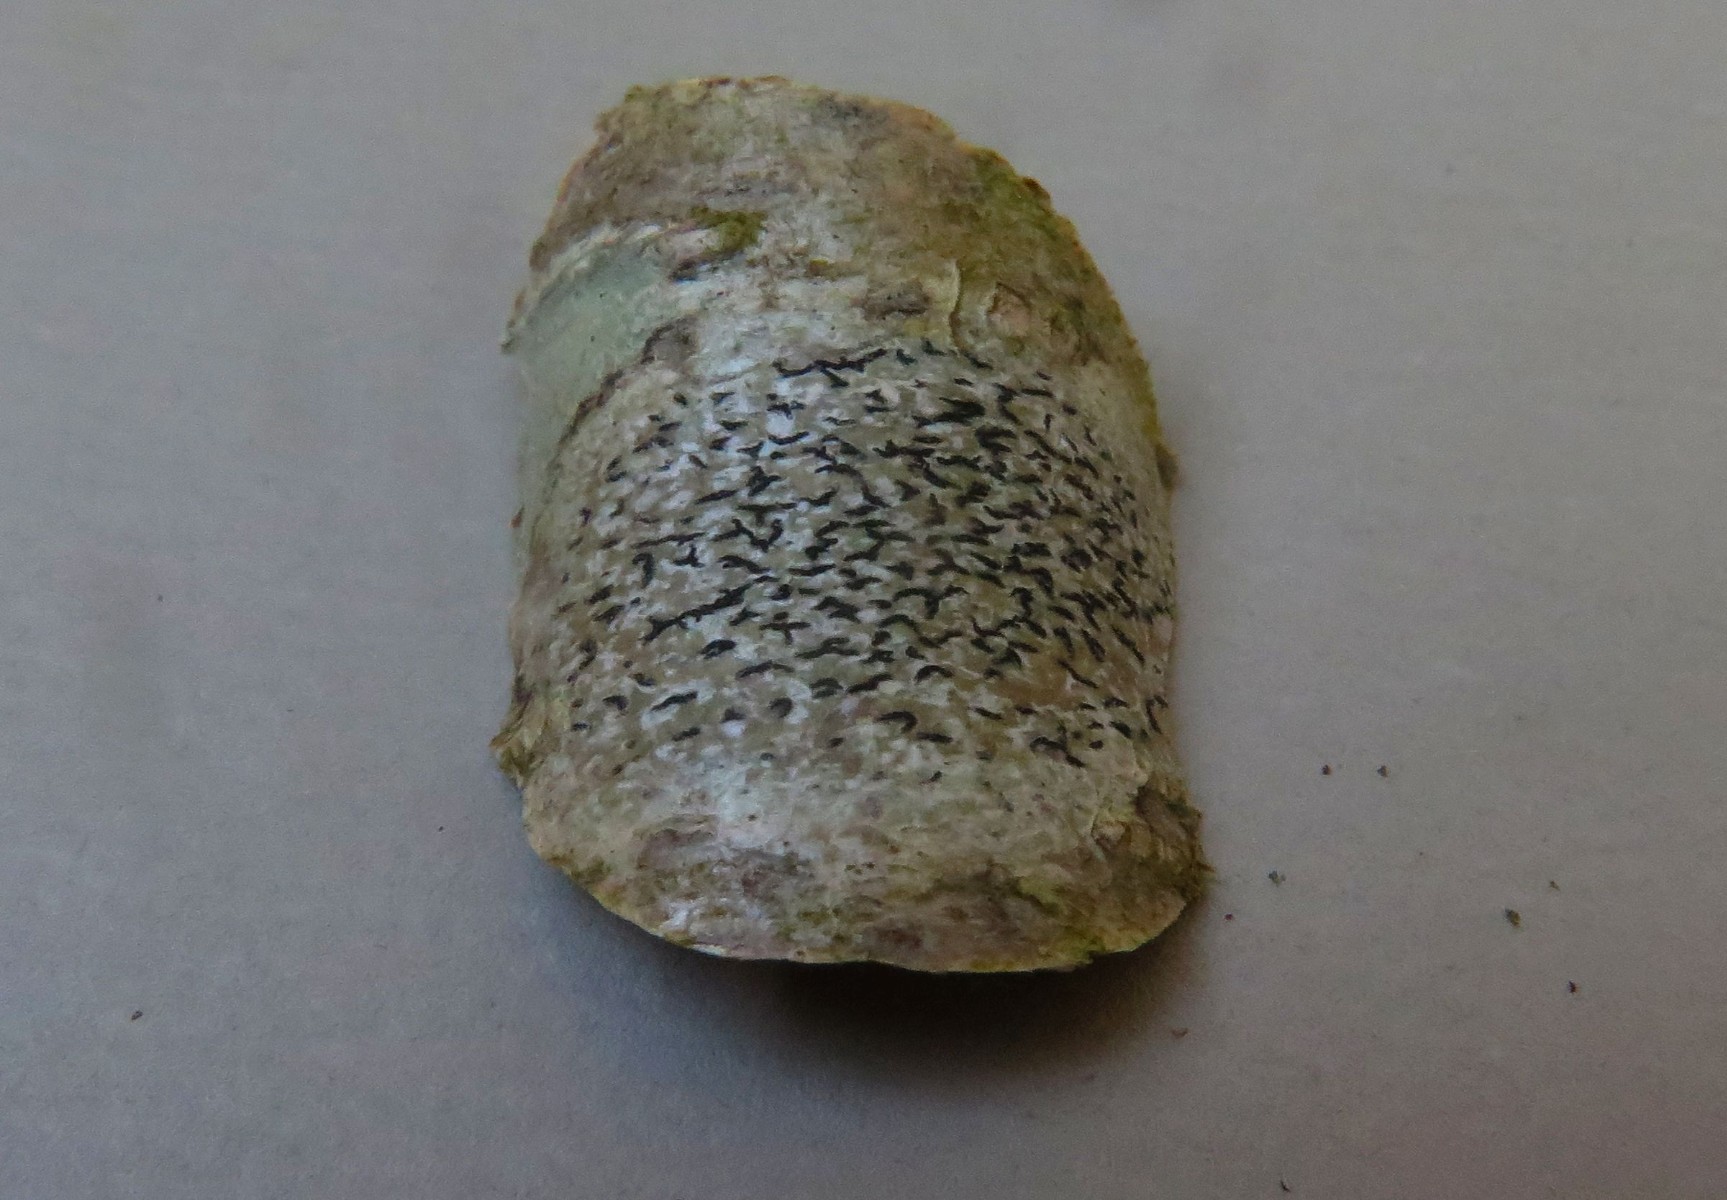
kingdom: Fungi
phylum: Ascomycota
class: Lecanoromycetes
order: Ostropales
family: Graphidaceae
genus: Graphis
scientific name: Graphis scripta
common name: almindelig skriftlav
